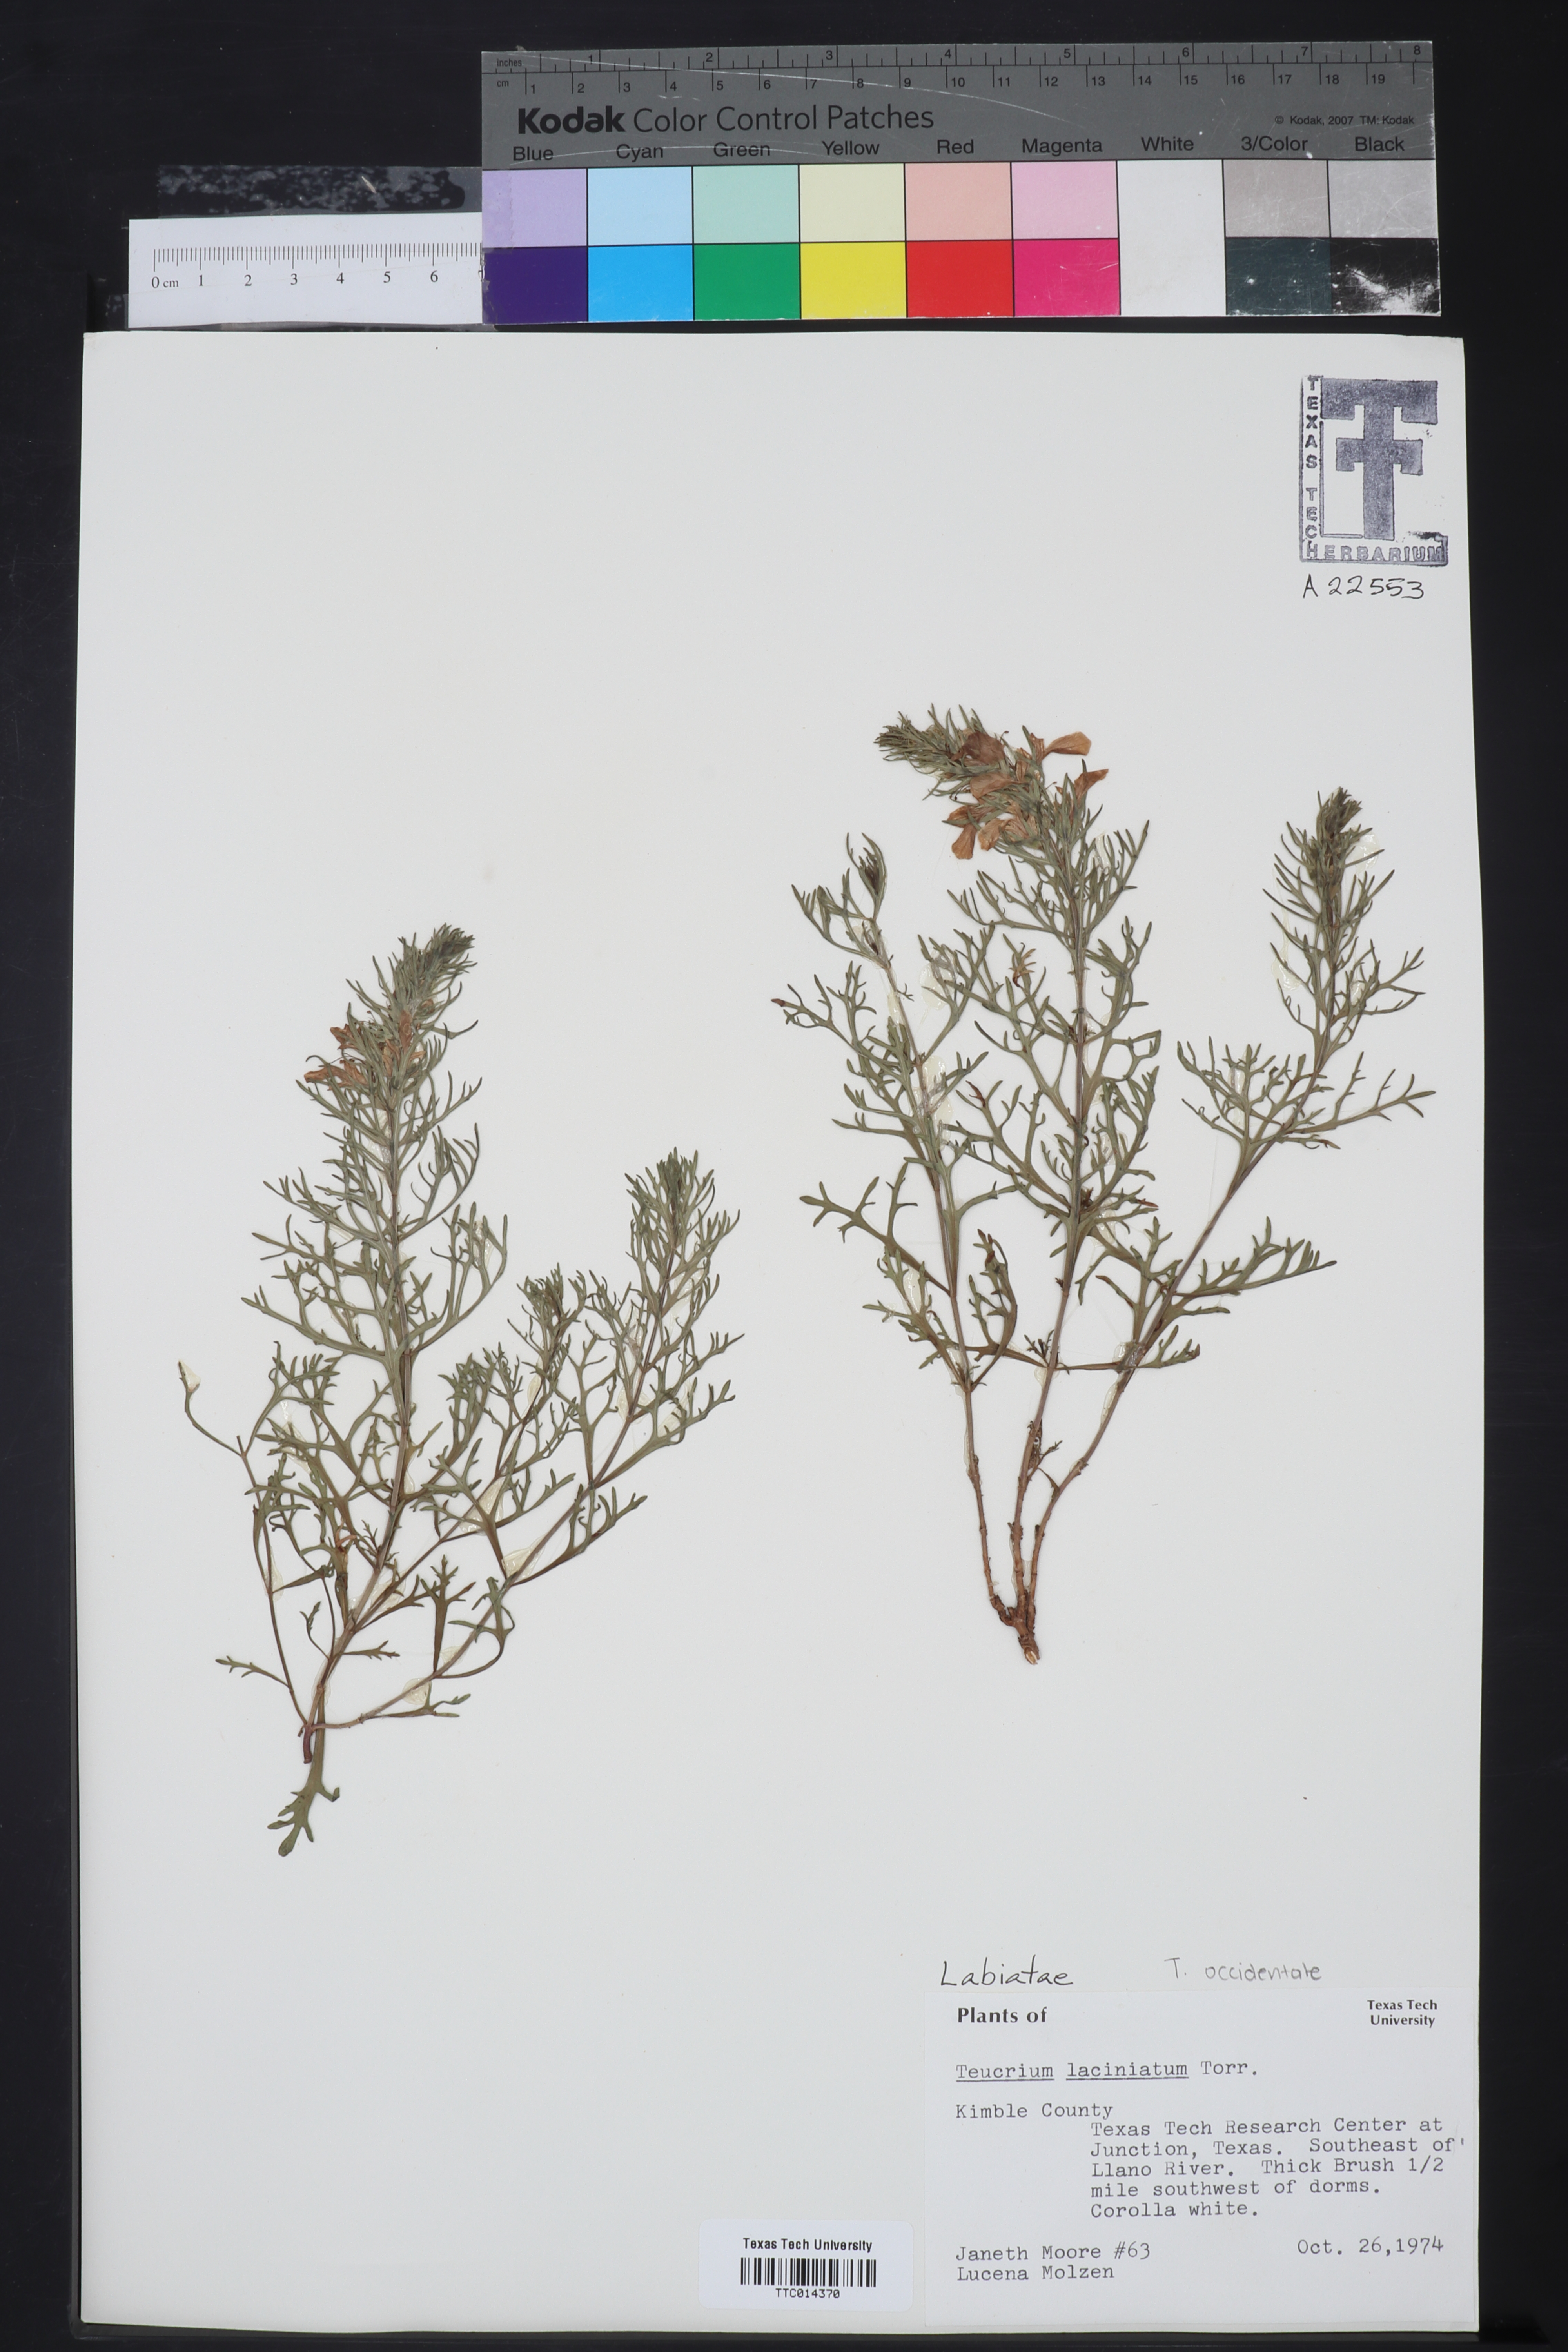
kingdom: Plantae
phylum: Tracheophyta
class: Magnoliopsida
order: Lamiales
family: Lamiaceae
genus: Teucrium
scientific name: Teucrium laciniatum
